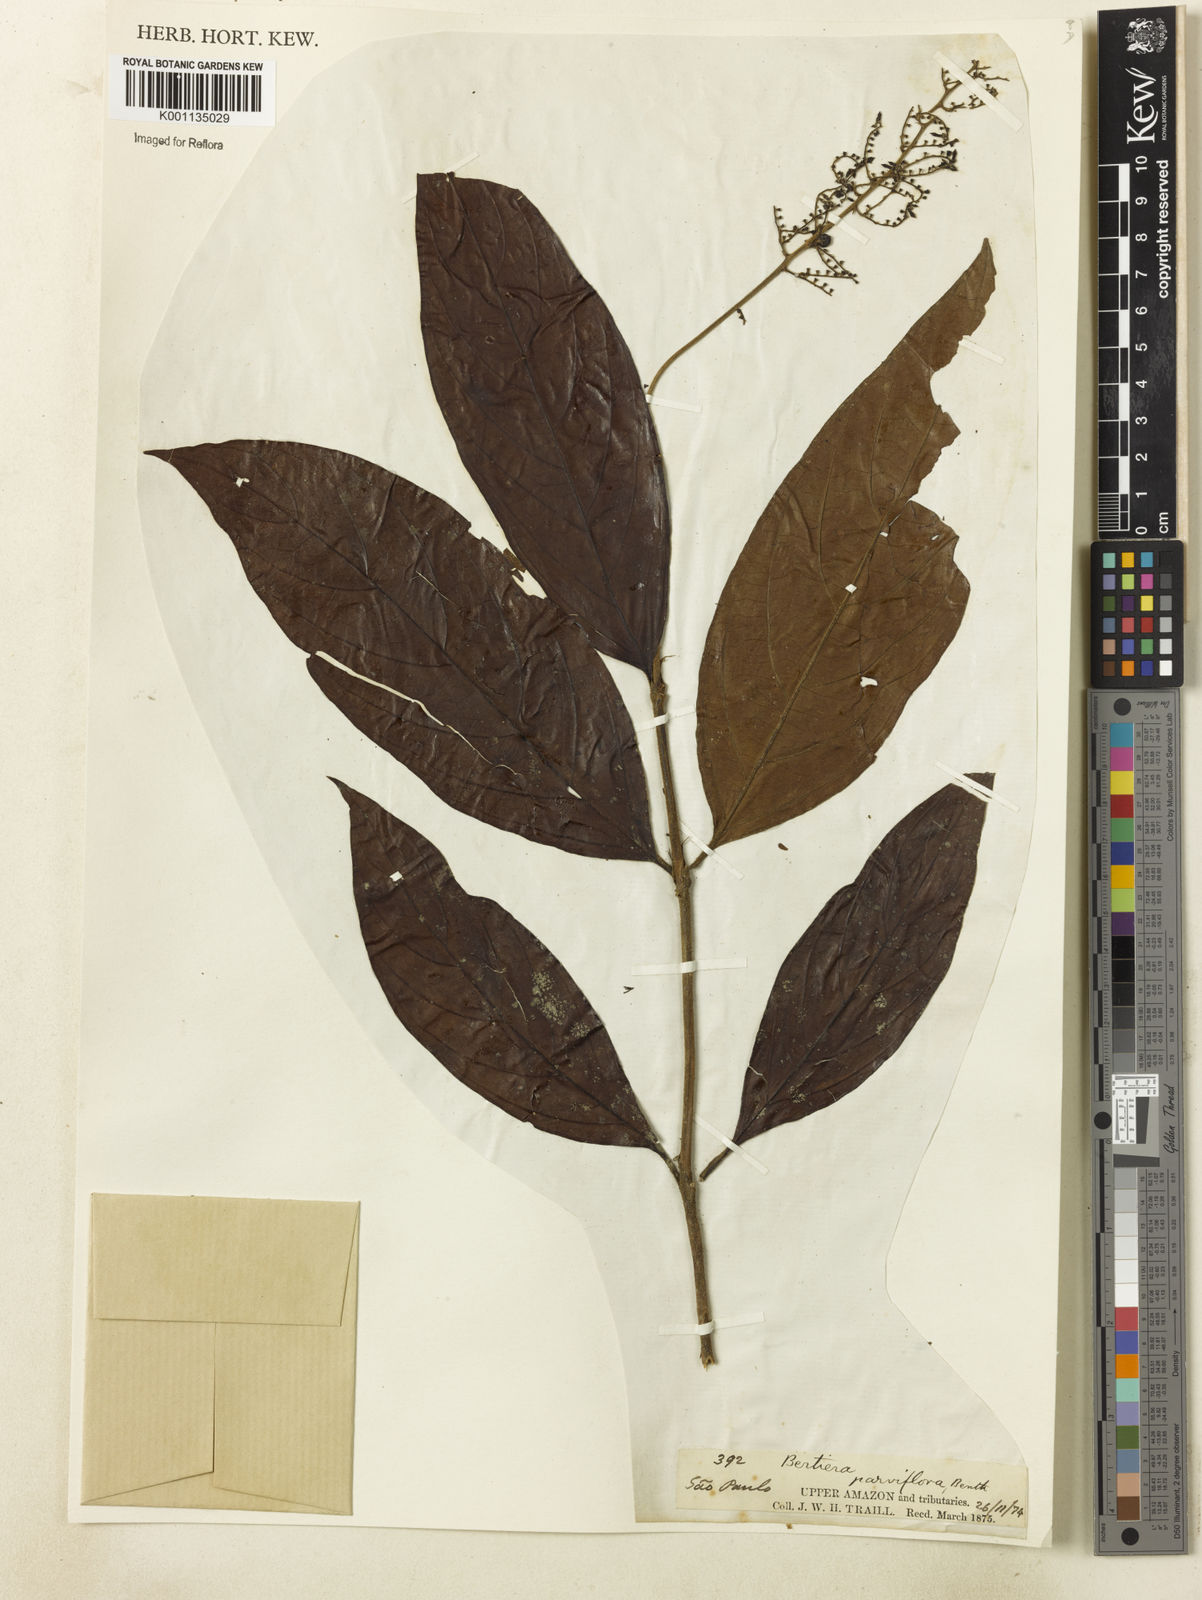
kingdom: Plantae
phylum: Tracheophyta
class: Magnoliopsida
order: Gentianales
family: Rubiaceae
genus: Bertiera
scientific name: Bertiera parviflora
